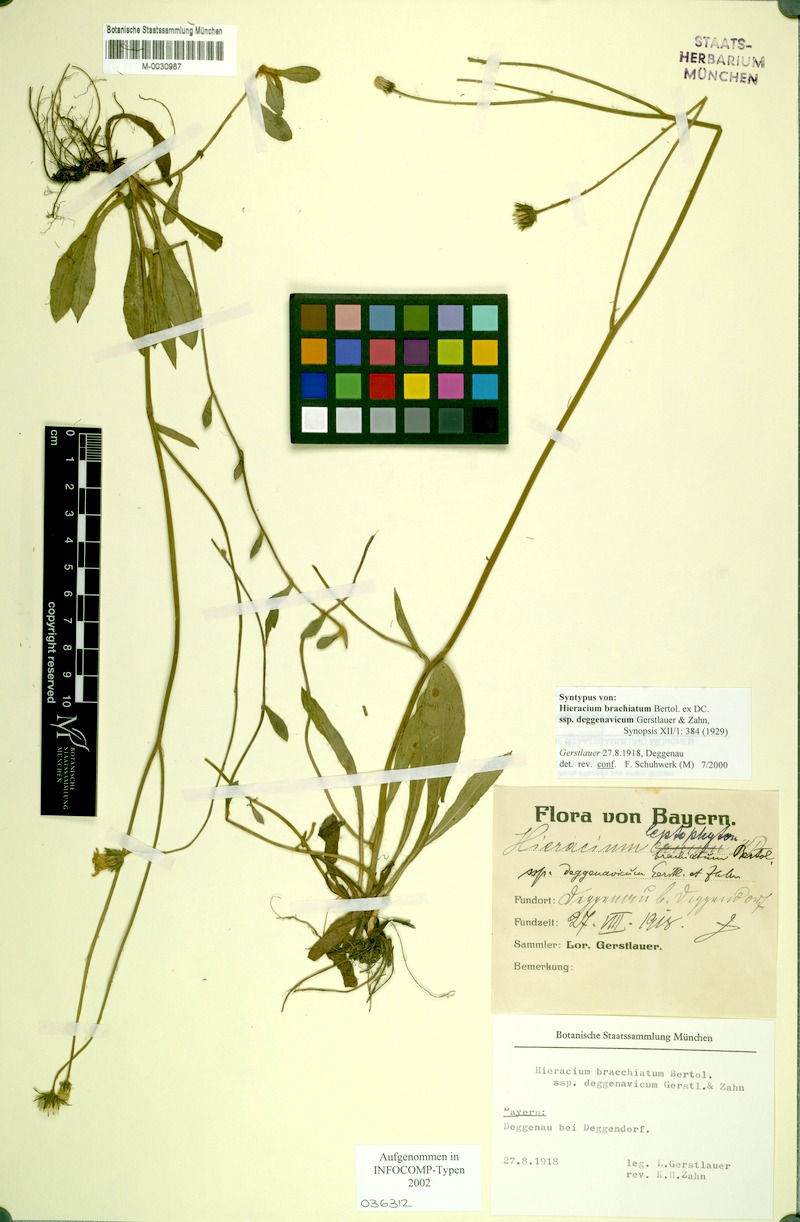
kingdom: Plantae
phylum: Tracheophyta
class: Magnoliopsida
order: Asterales
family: Asteraceae
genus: Pilosella
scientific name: Pilosella acutifolia
